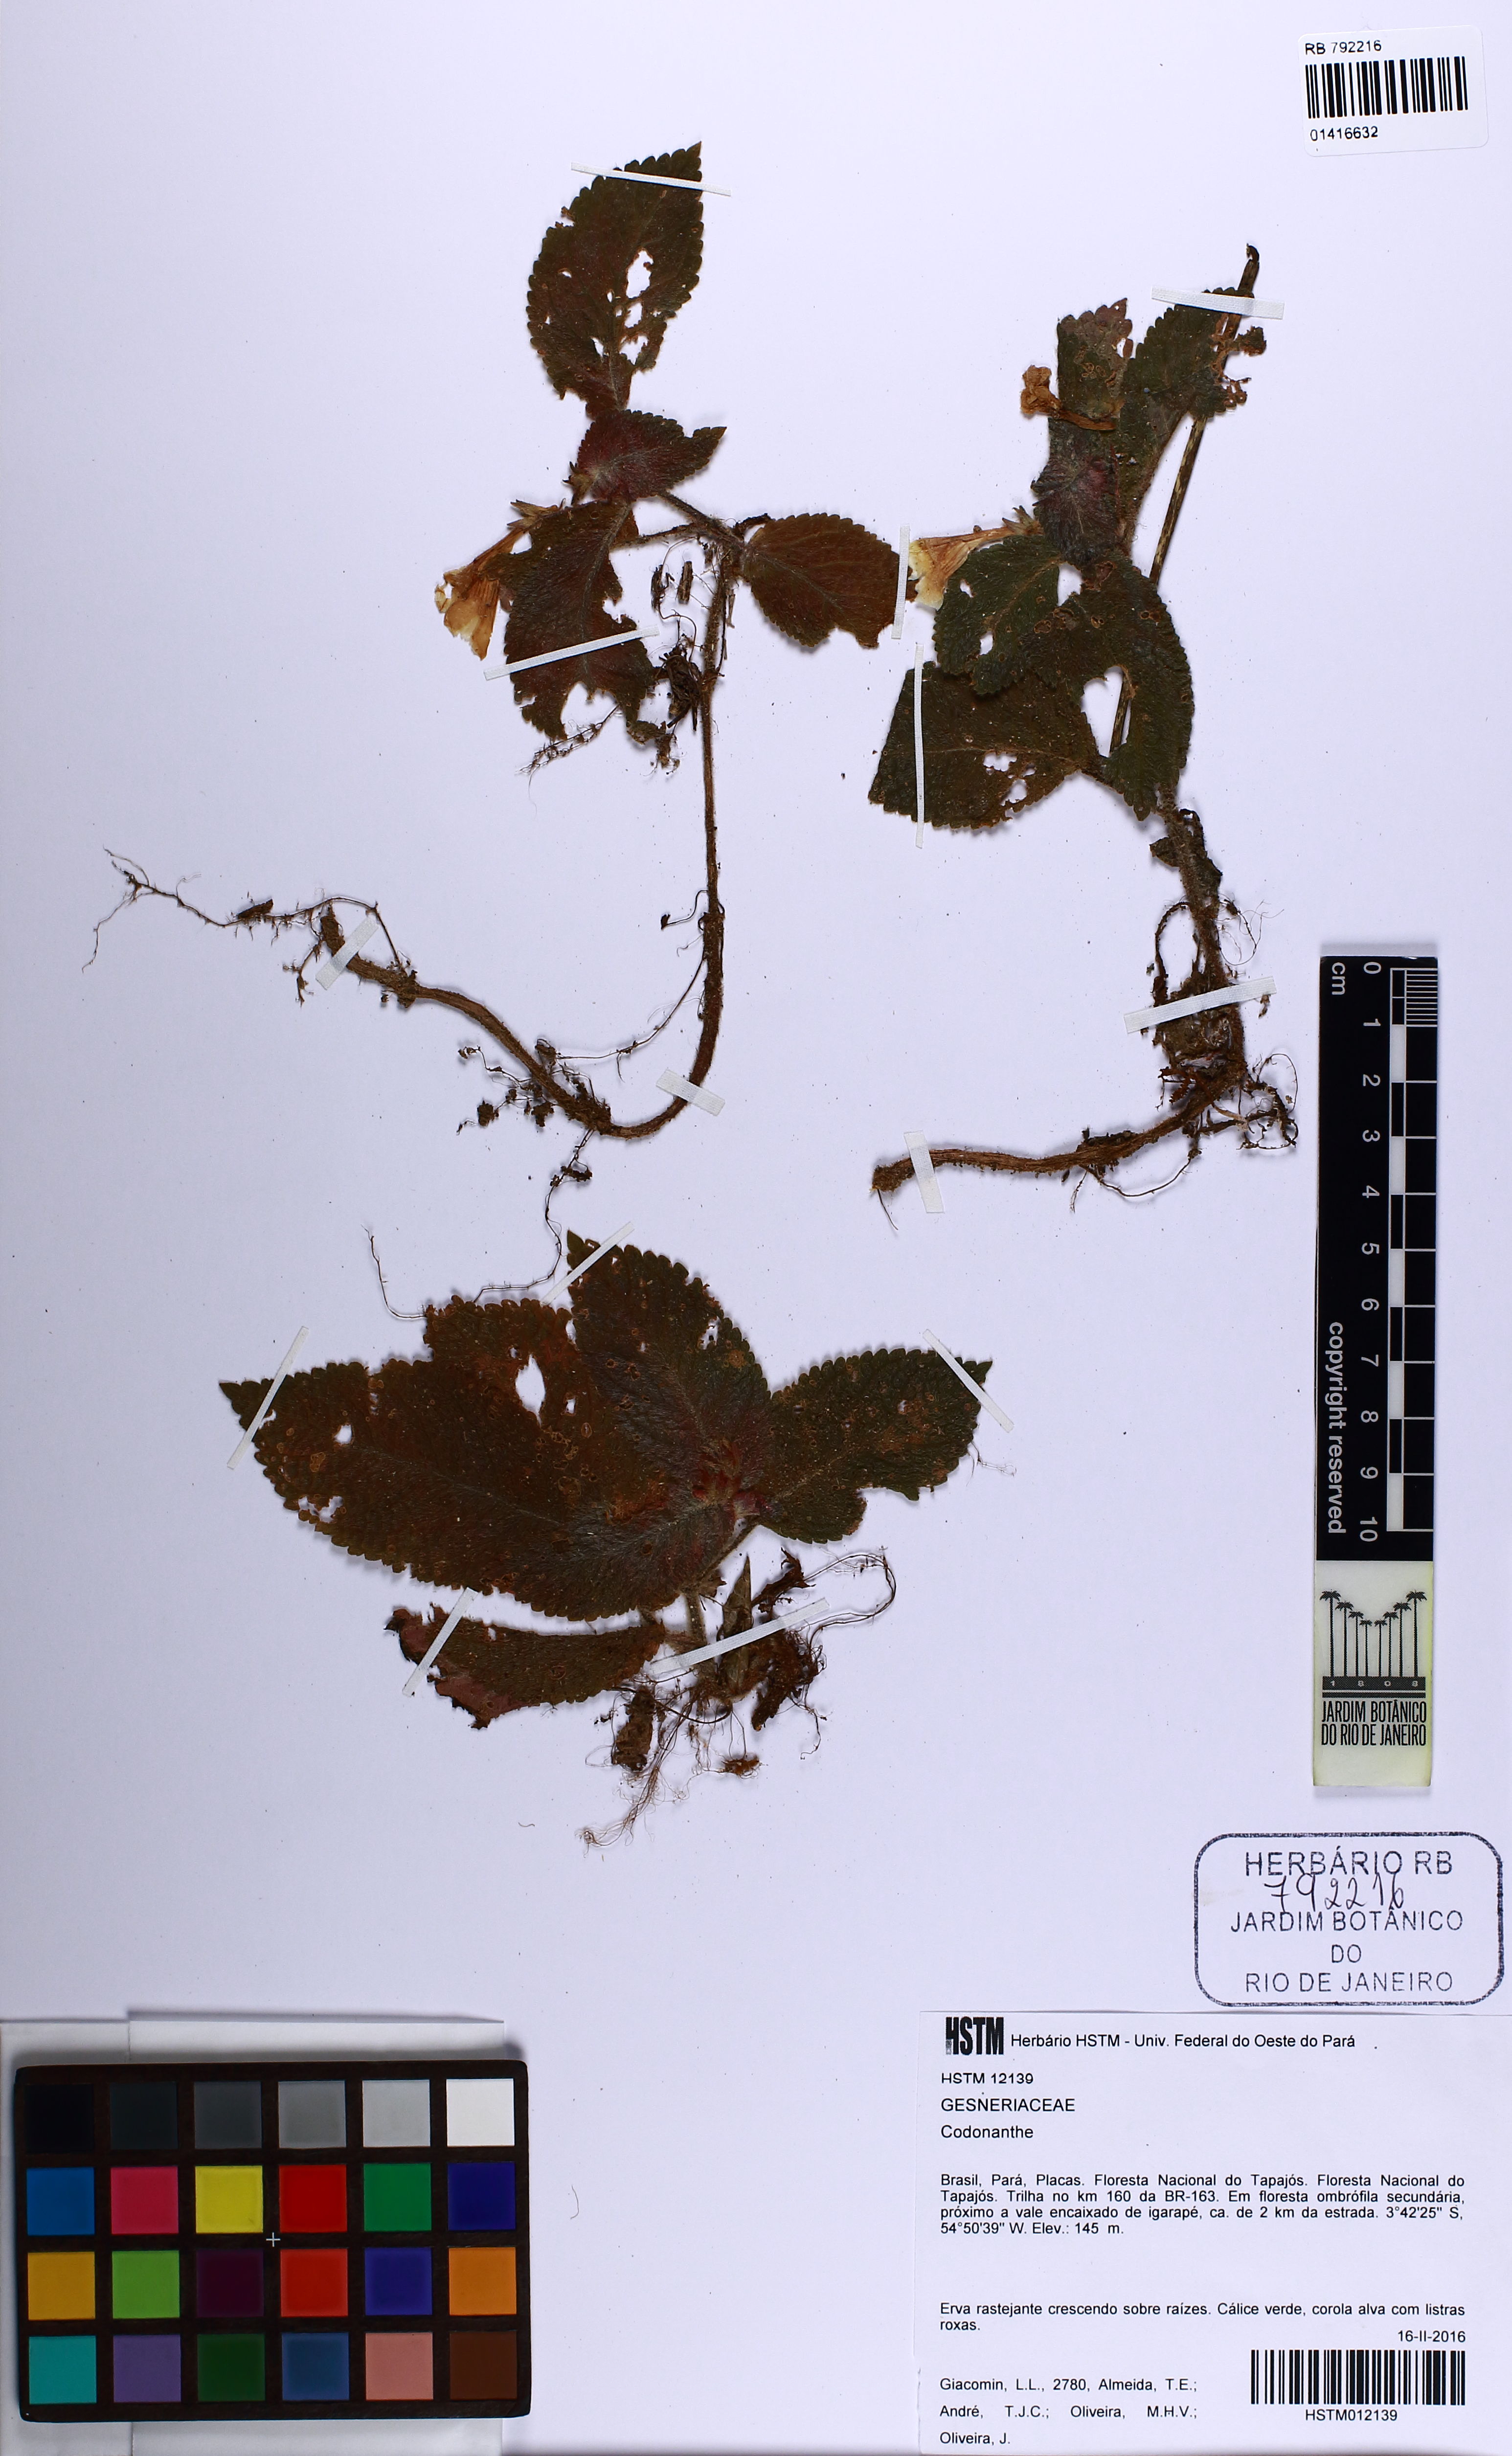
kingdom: Plantae
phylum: Tracheophyta
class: Magnoliopsida
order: Lamiales
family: Gesneriaceae
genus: Codonanthe
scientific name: Codonanthe
